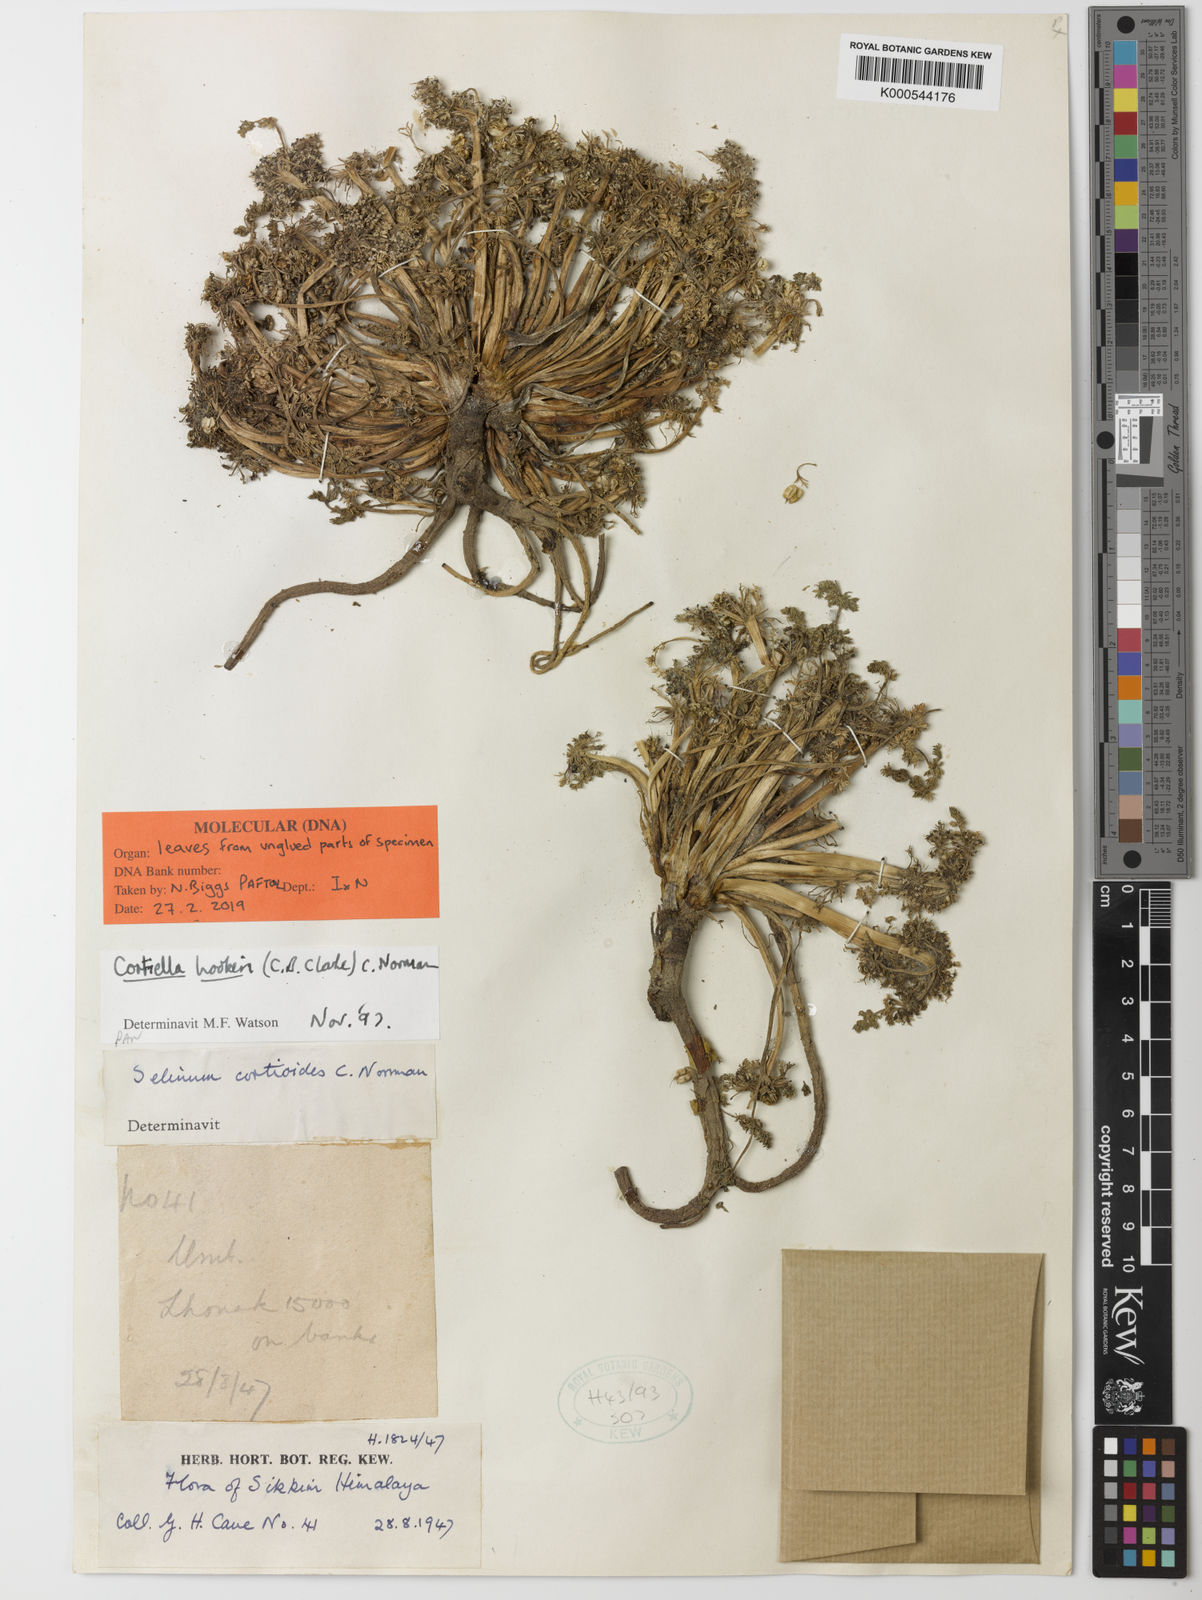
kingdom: Plantae
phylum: Tracheophyta
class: Magnoliopsida
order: Apiales
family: Apiaceae
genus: Cortiella
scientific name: Cortiella hookeri
